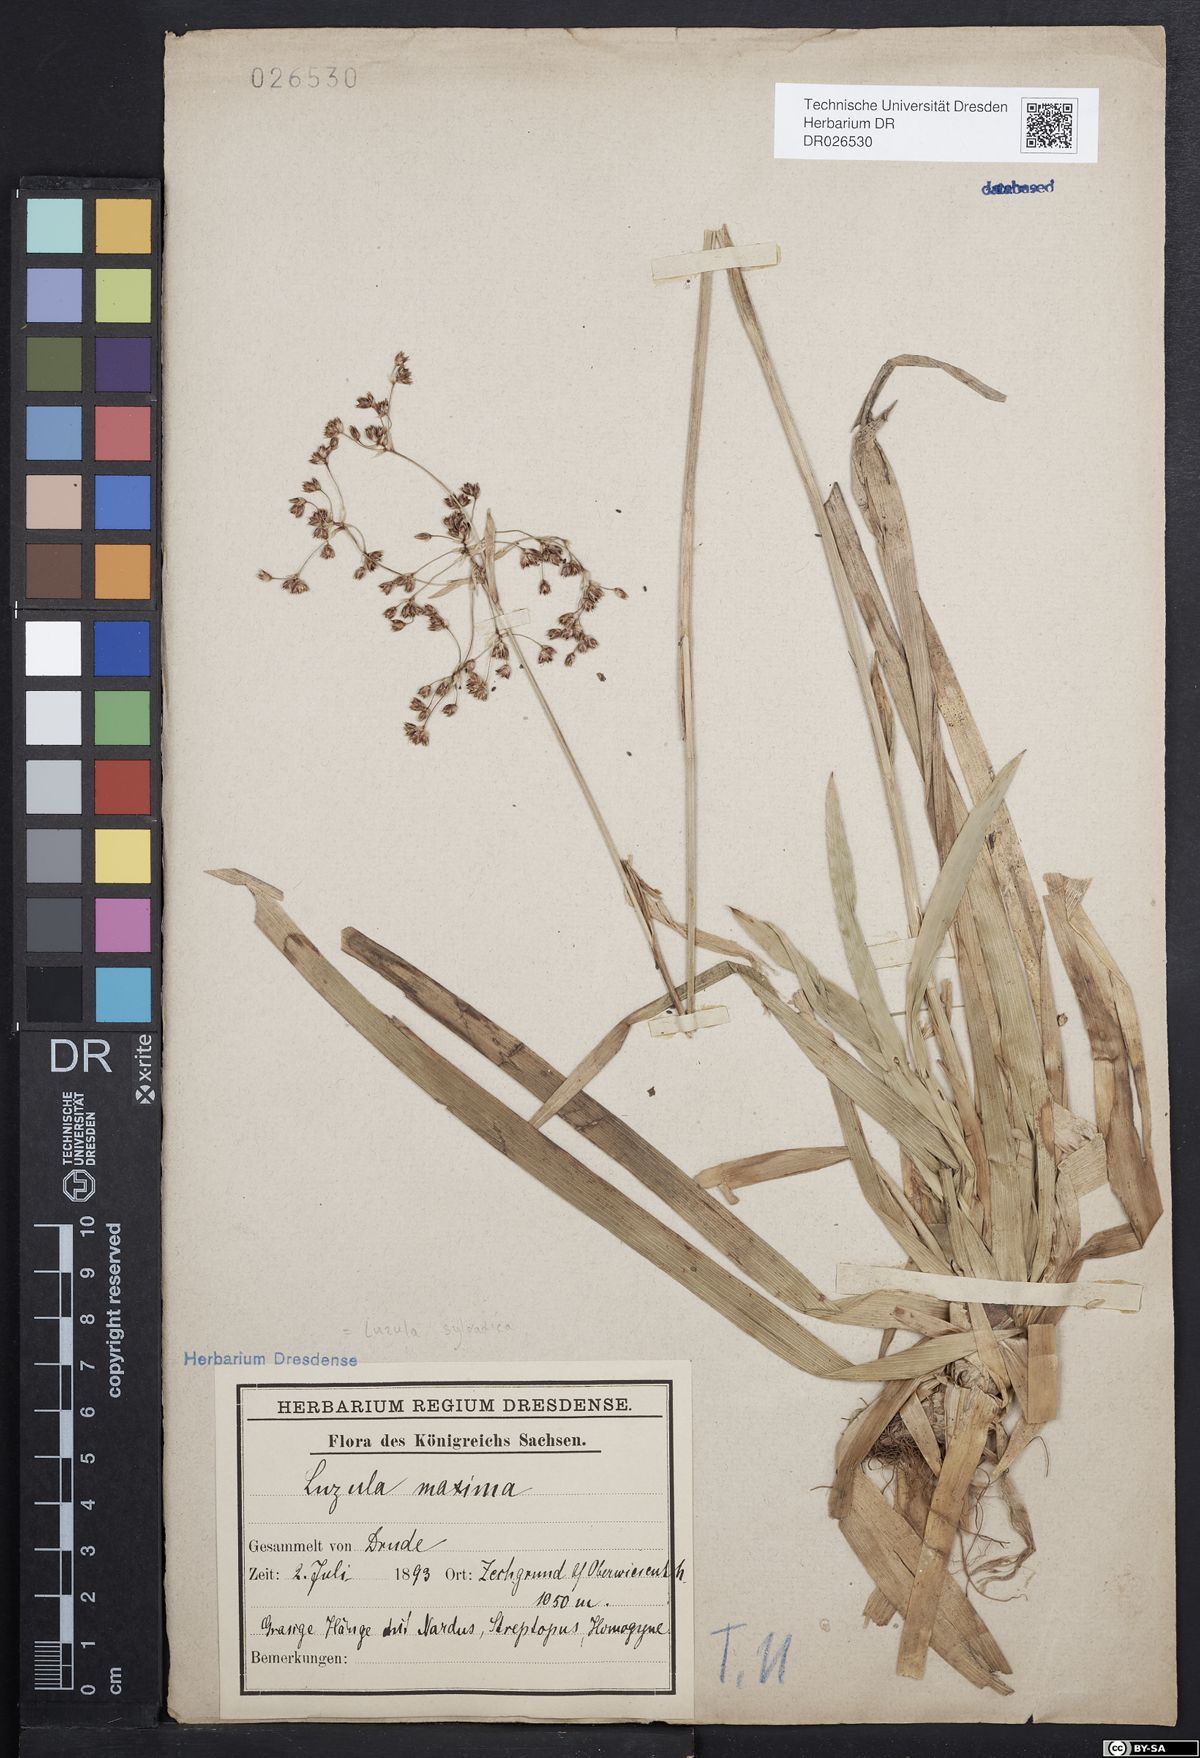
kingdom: Plantae
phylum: Tracheophyta
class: Liliopsida
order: Poales
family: Juncaceae
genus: Luzula
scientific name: Luzula sylvatica
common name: Great wood-rush
